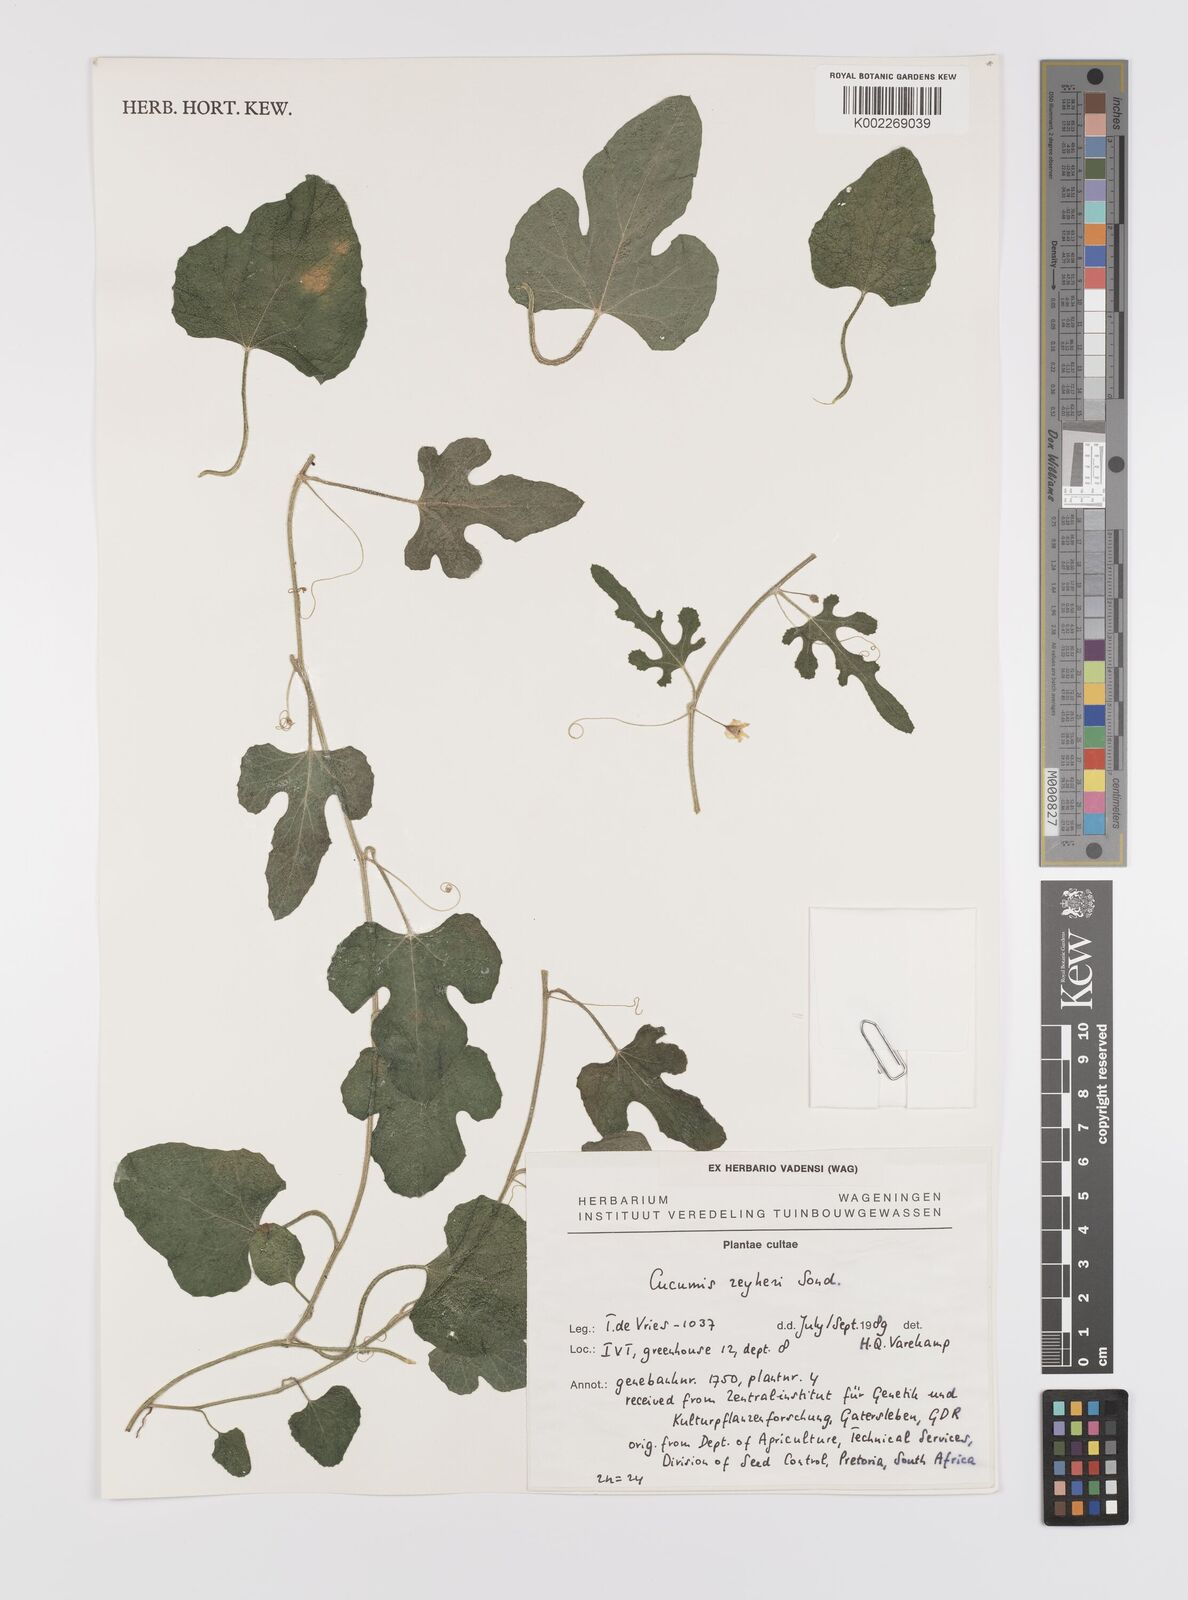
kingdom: Plantae
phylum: Tracheophyta
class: Magnoliopsida
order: Cucurbitales
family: Cucurbitaceae
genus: Cucumis
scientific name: Cucumis sativus
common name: Cucumber
